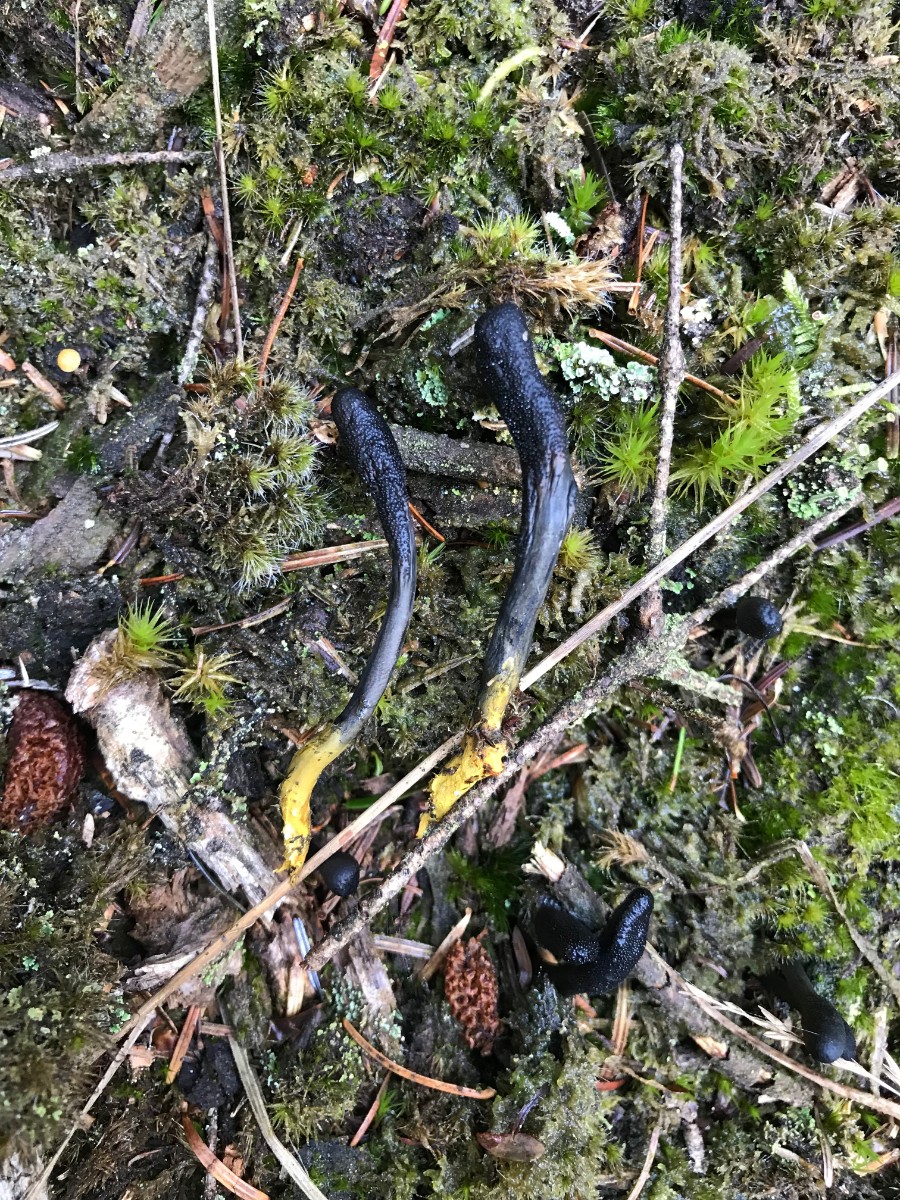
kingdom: Fungi
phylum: Ascomycota
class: Sordariomycetes
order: Hypocreales
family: Ophiocordycipitaceae
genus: Tolypocladium
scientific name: Tolypocladium ophioglossoides
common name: slank snyltekølle
